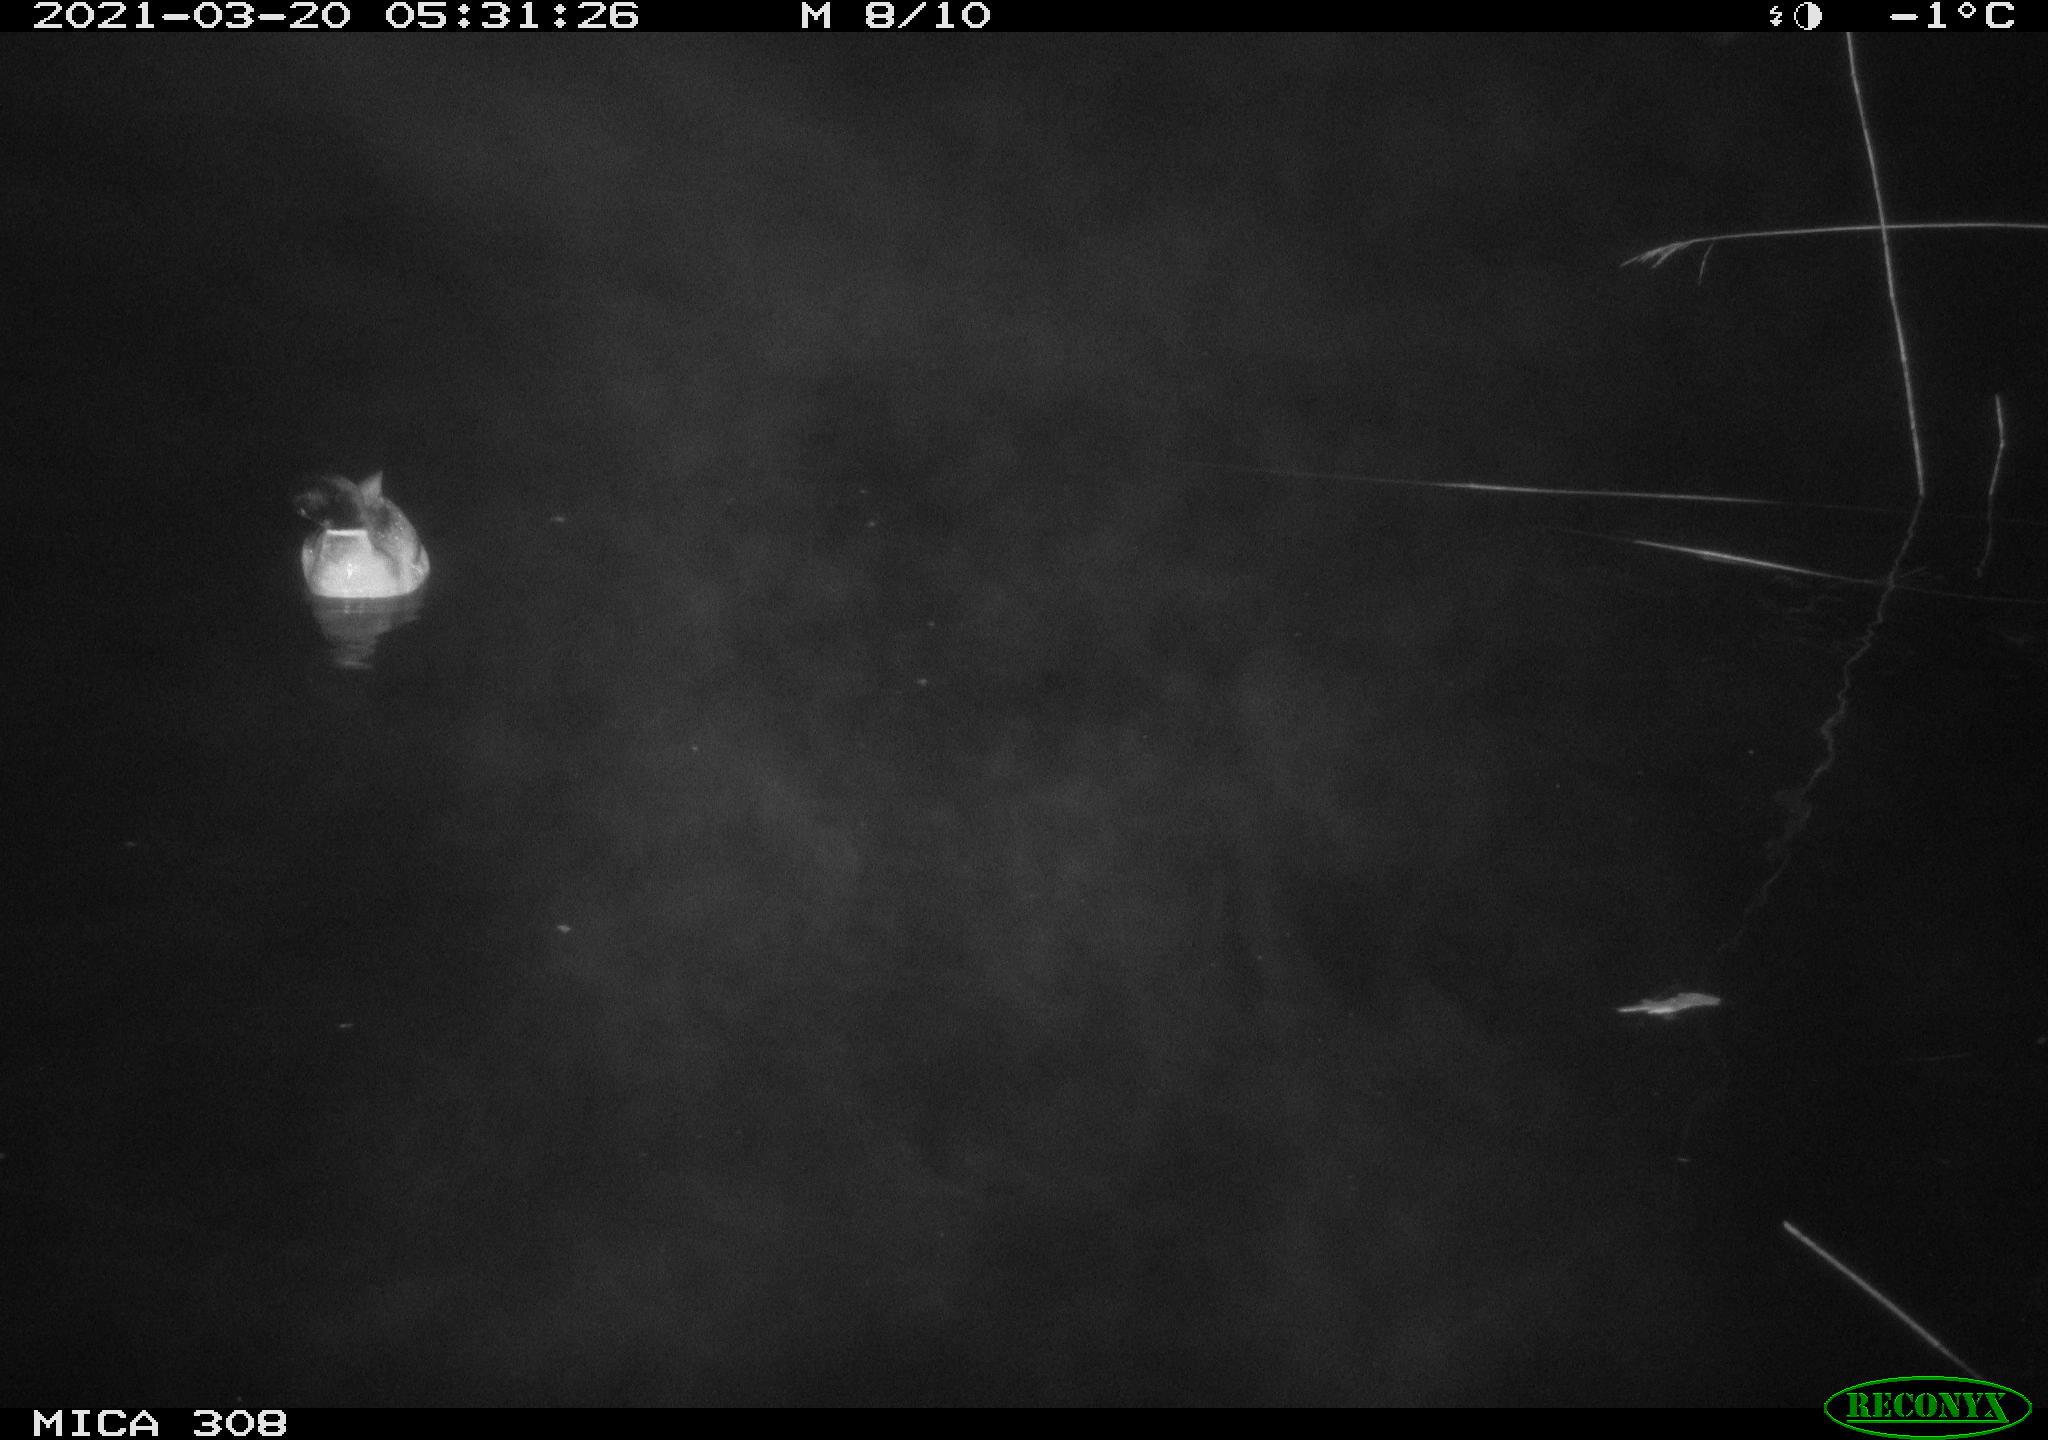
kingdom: Animalia
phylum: Chordata
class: Aves
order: Anseriformes
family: Anatidae
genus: Anas
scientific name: Anas platyrhynchos
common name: Mallard
